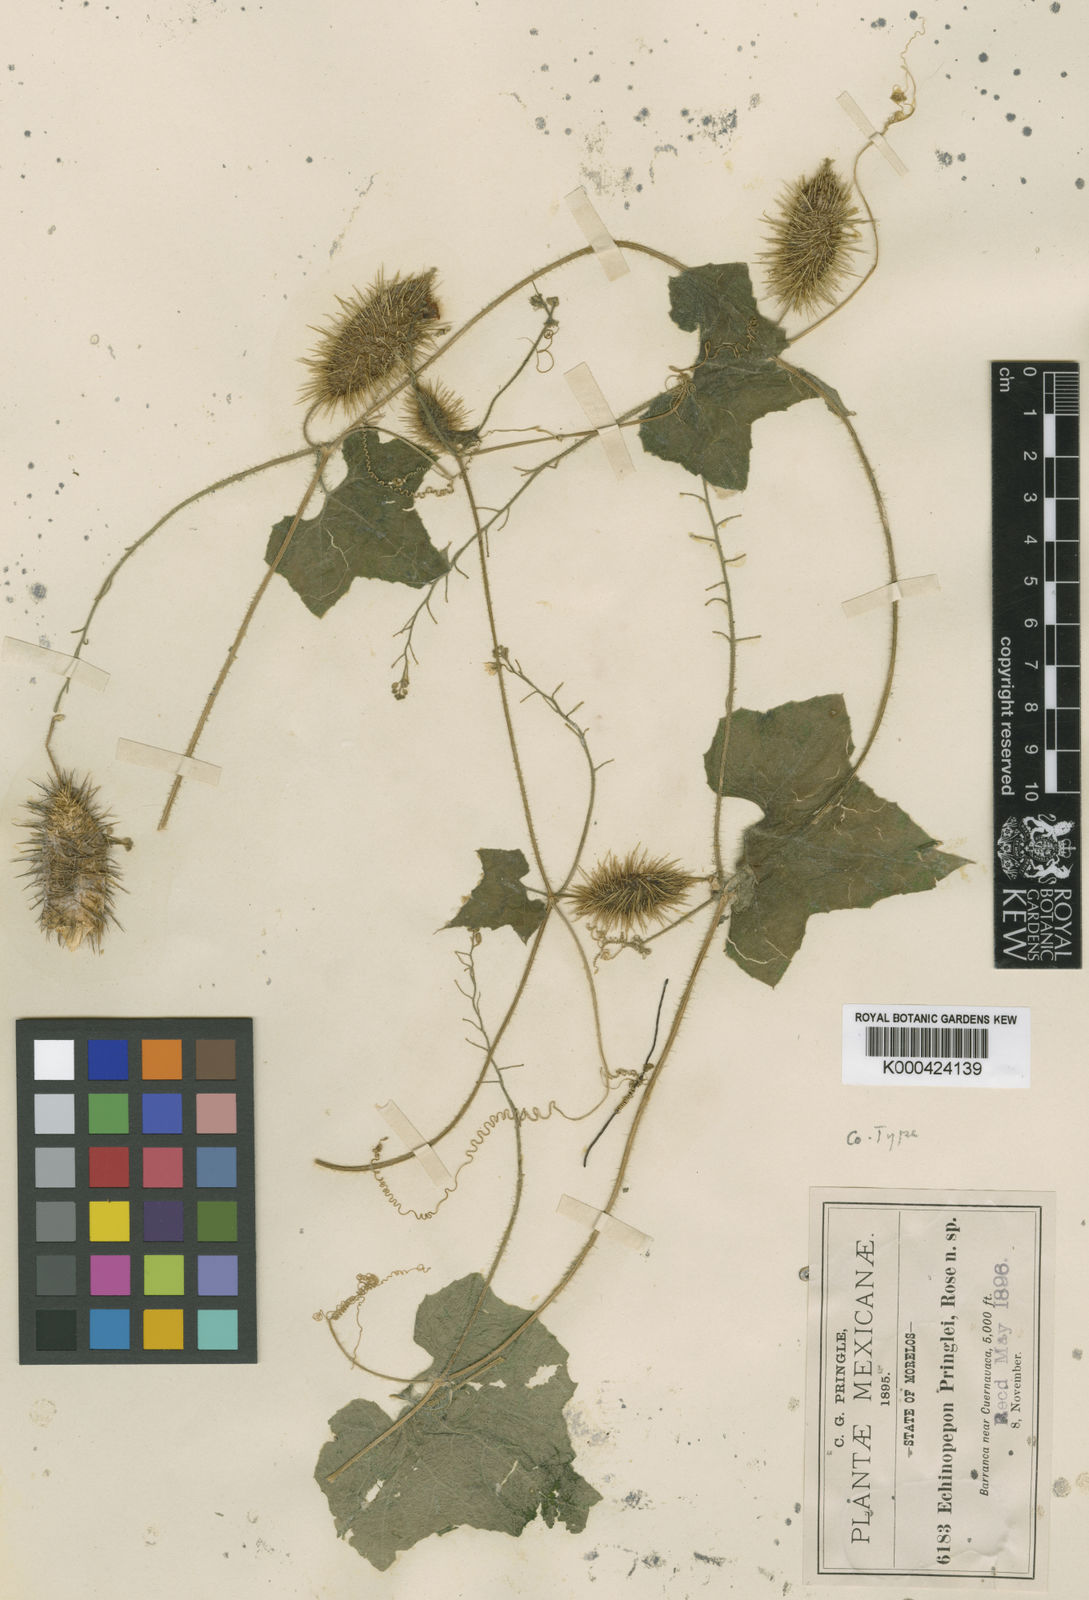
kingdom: Plantae
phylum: Tracheophyta
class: Magnoliopsida
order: Cucurbitales
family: Cucurbitaceae
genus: Echinopepon
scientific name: Echinopepon racemosus
